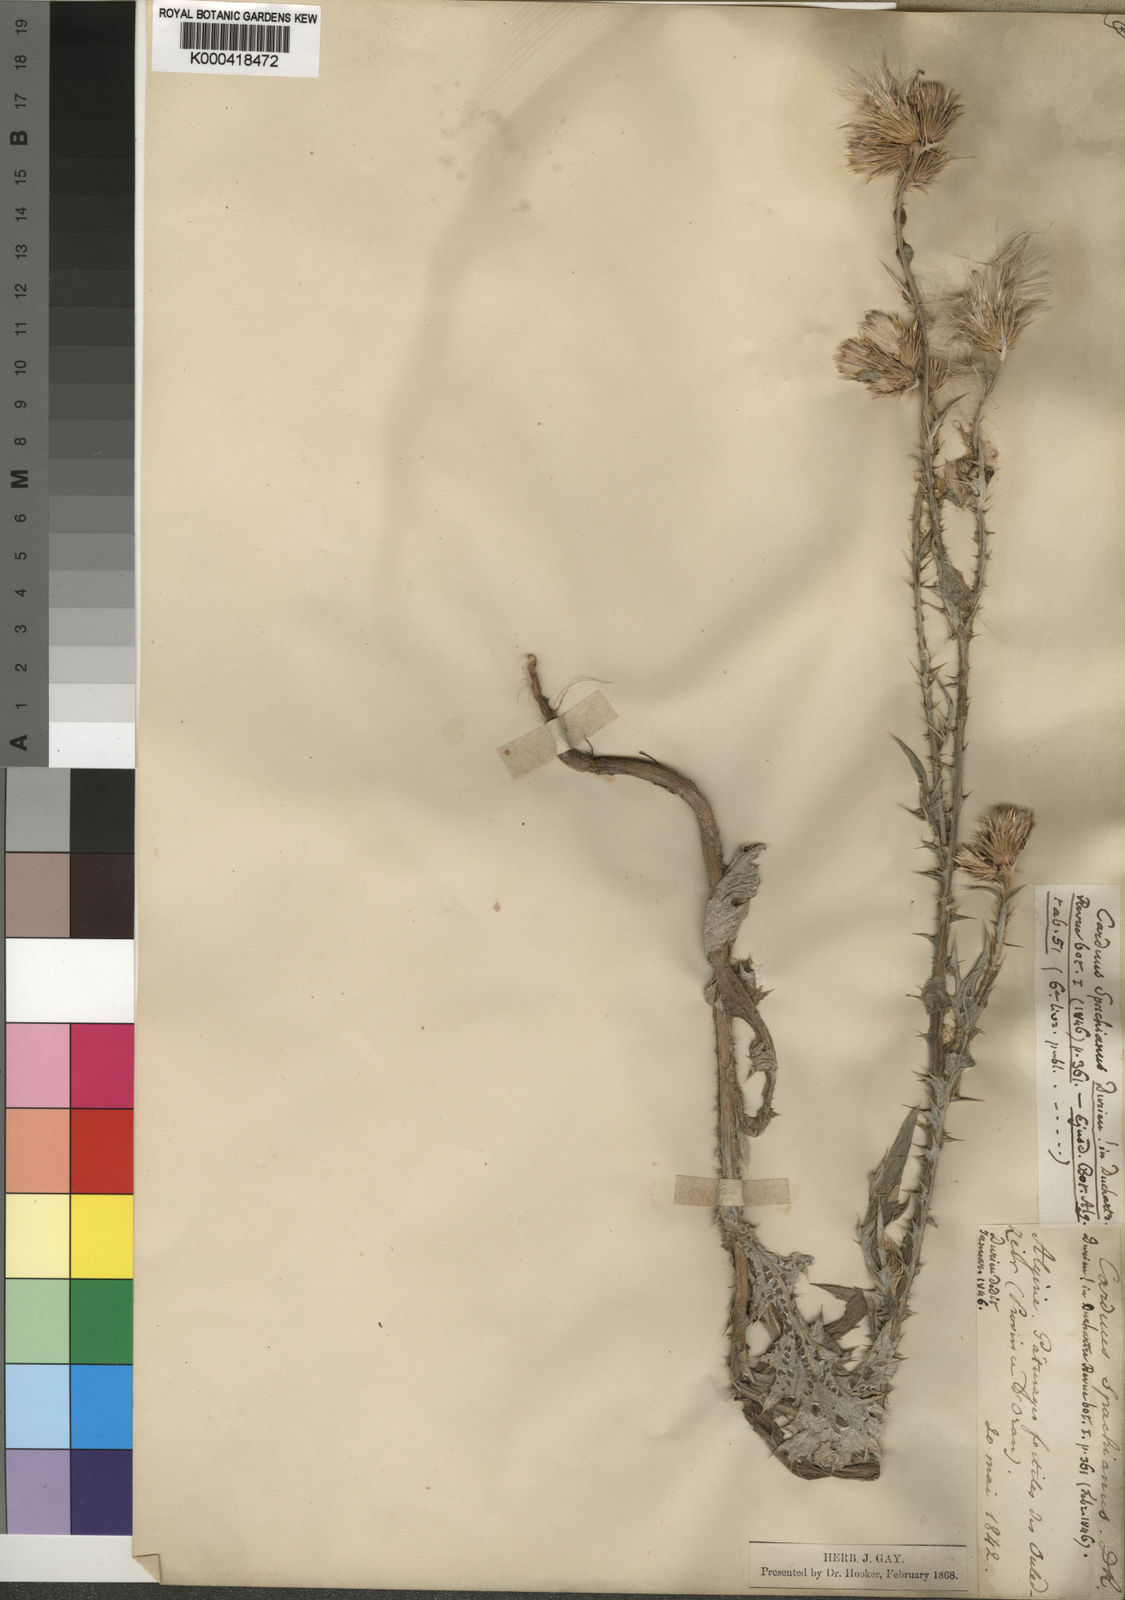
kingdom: Plantae
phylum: Tracheophyta
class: Magnoliopsida
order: Asterales
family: Asteraceae
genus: Carduus
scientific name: Carduus spachianus
